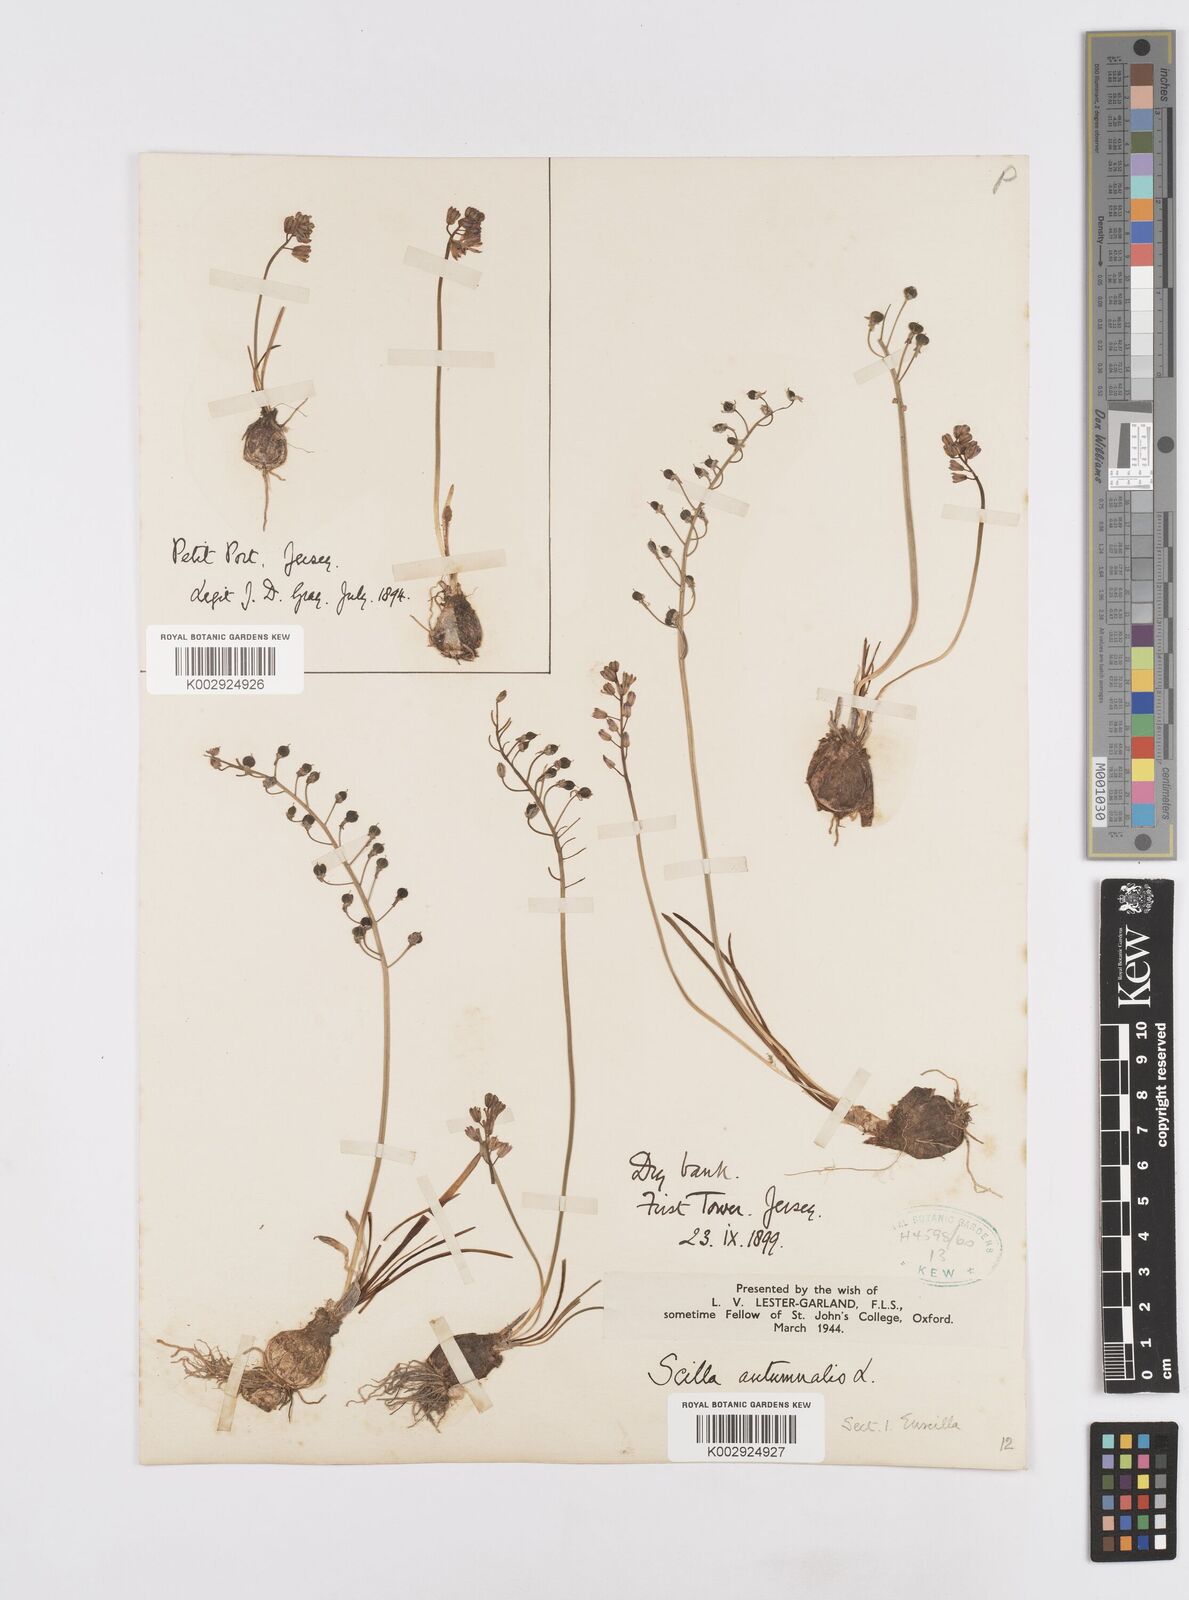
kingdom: Plantae
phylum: Tracheophyta
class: Liliopsida
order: Asparagales
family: Asparagaceae
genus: Prospero
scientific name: Prospero autumnale
